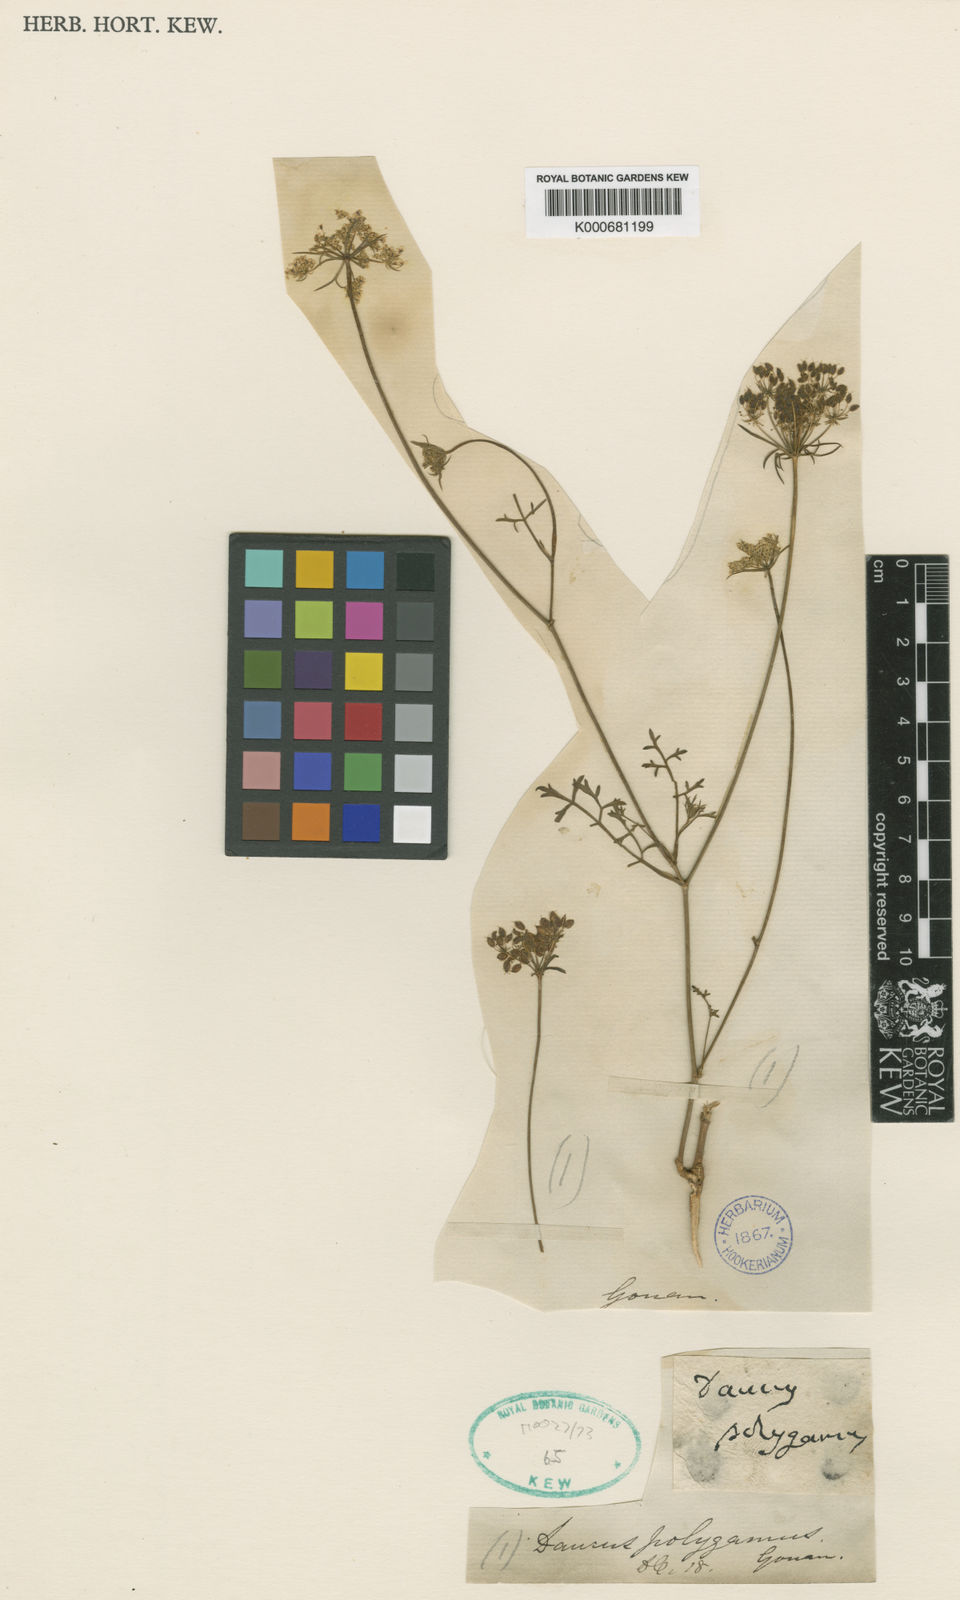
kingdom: Plantae
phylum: Tracheophyta
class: Magnoliopsida
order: Apiales
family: Apiaceae
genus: Daucus
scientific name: Daucus carota
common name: Wild carrot
